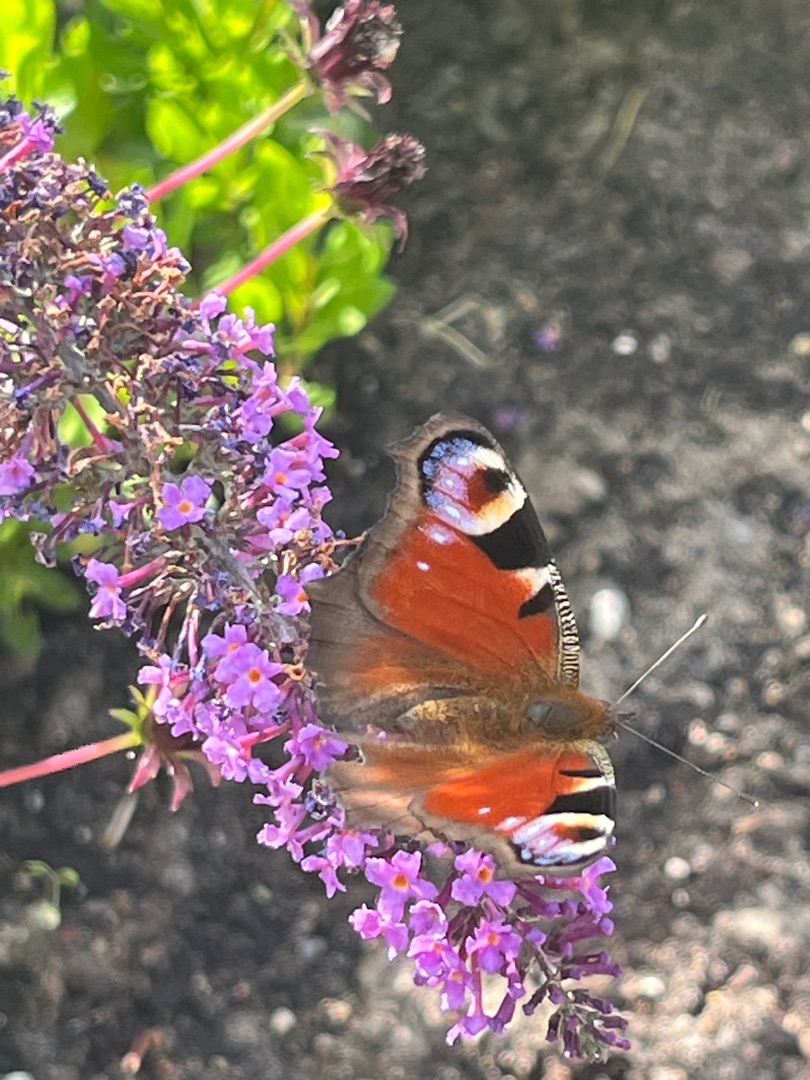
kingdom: Animalia
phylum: Arthropoda
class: Insecta
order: Lepidoptera
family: Nymphalidae
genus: Aglais
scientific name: Aglais io
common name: Dagpåfugleøje
